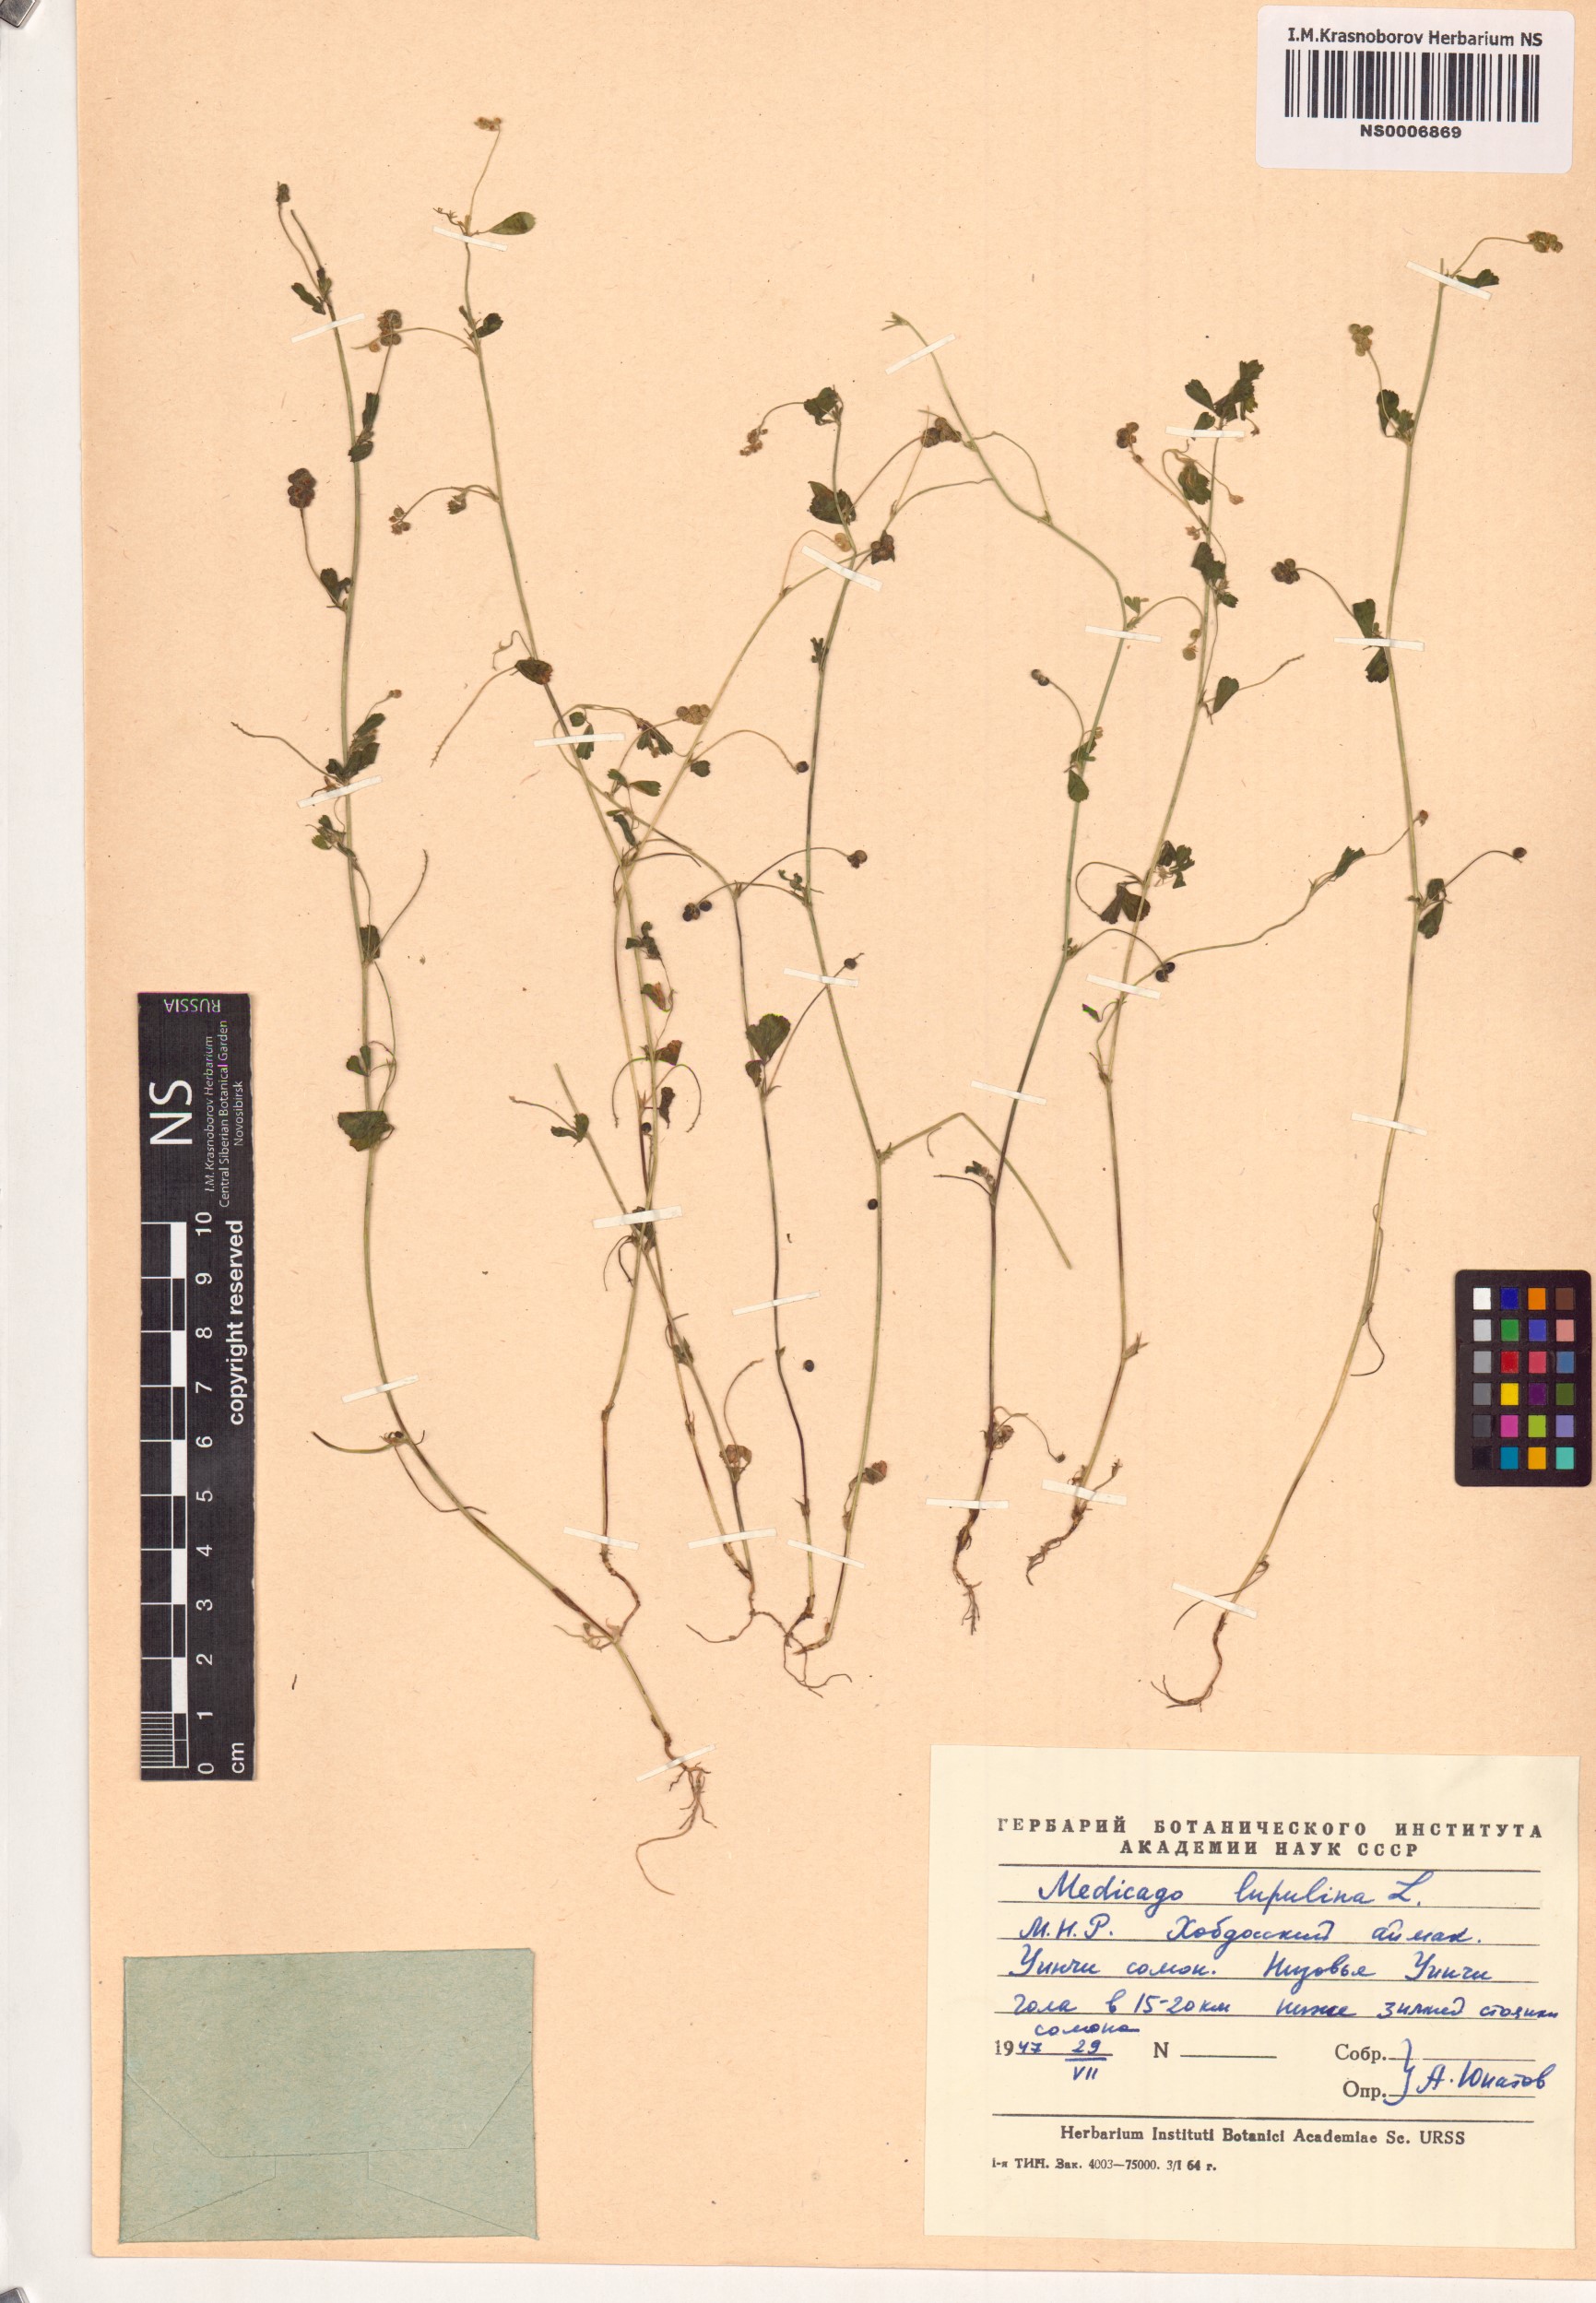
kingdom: Plantae
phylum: Tracheophyta
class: Magnoliopsida
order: Fabales
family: Fabaceae
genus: Medicago
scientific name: Medicago lupulina
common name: Black medick
